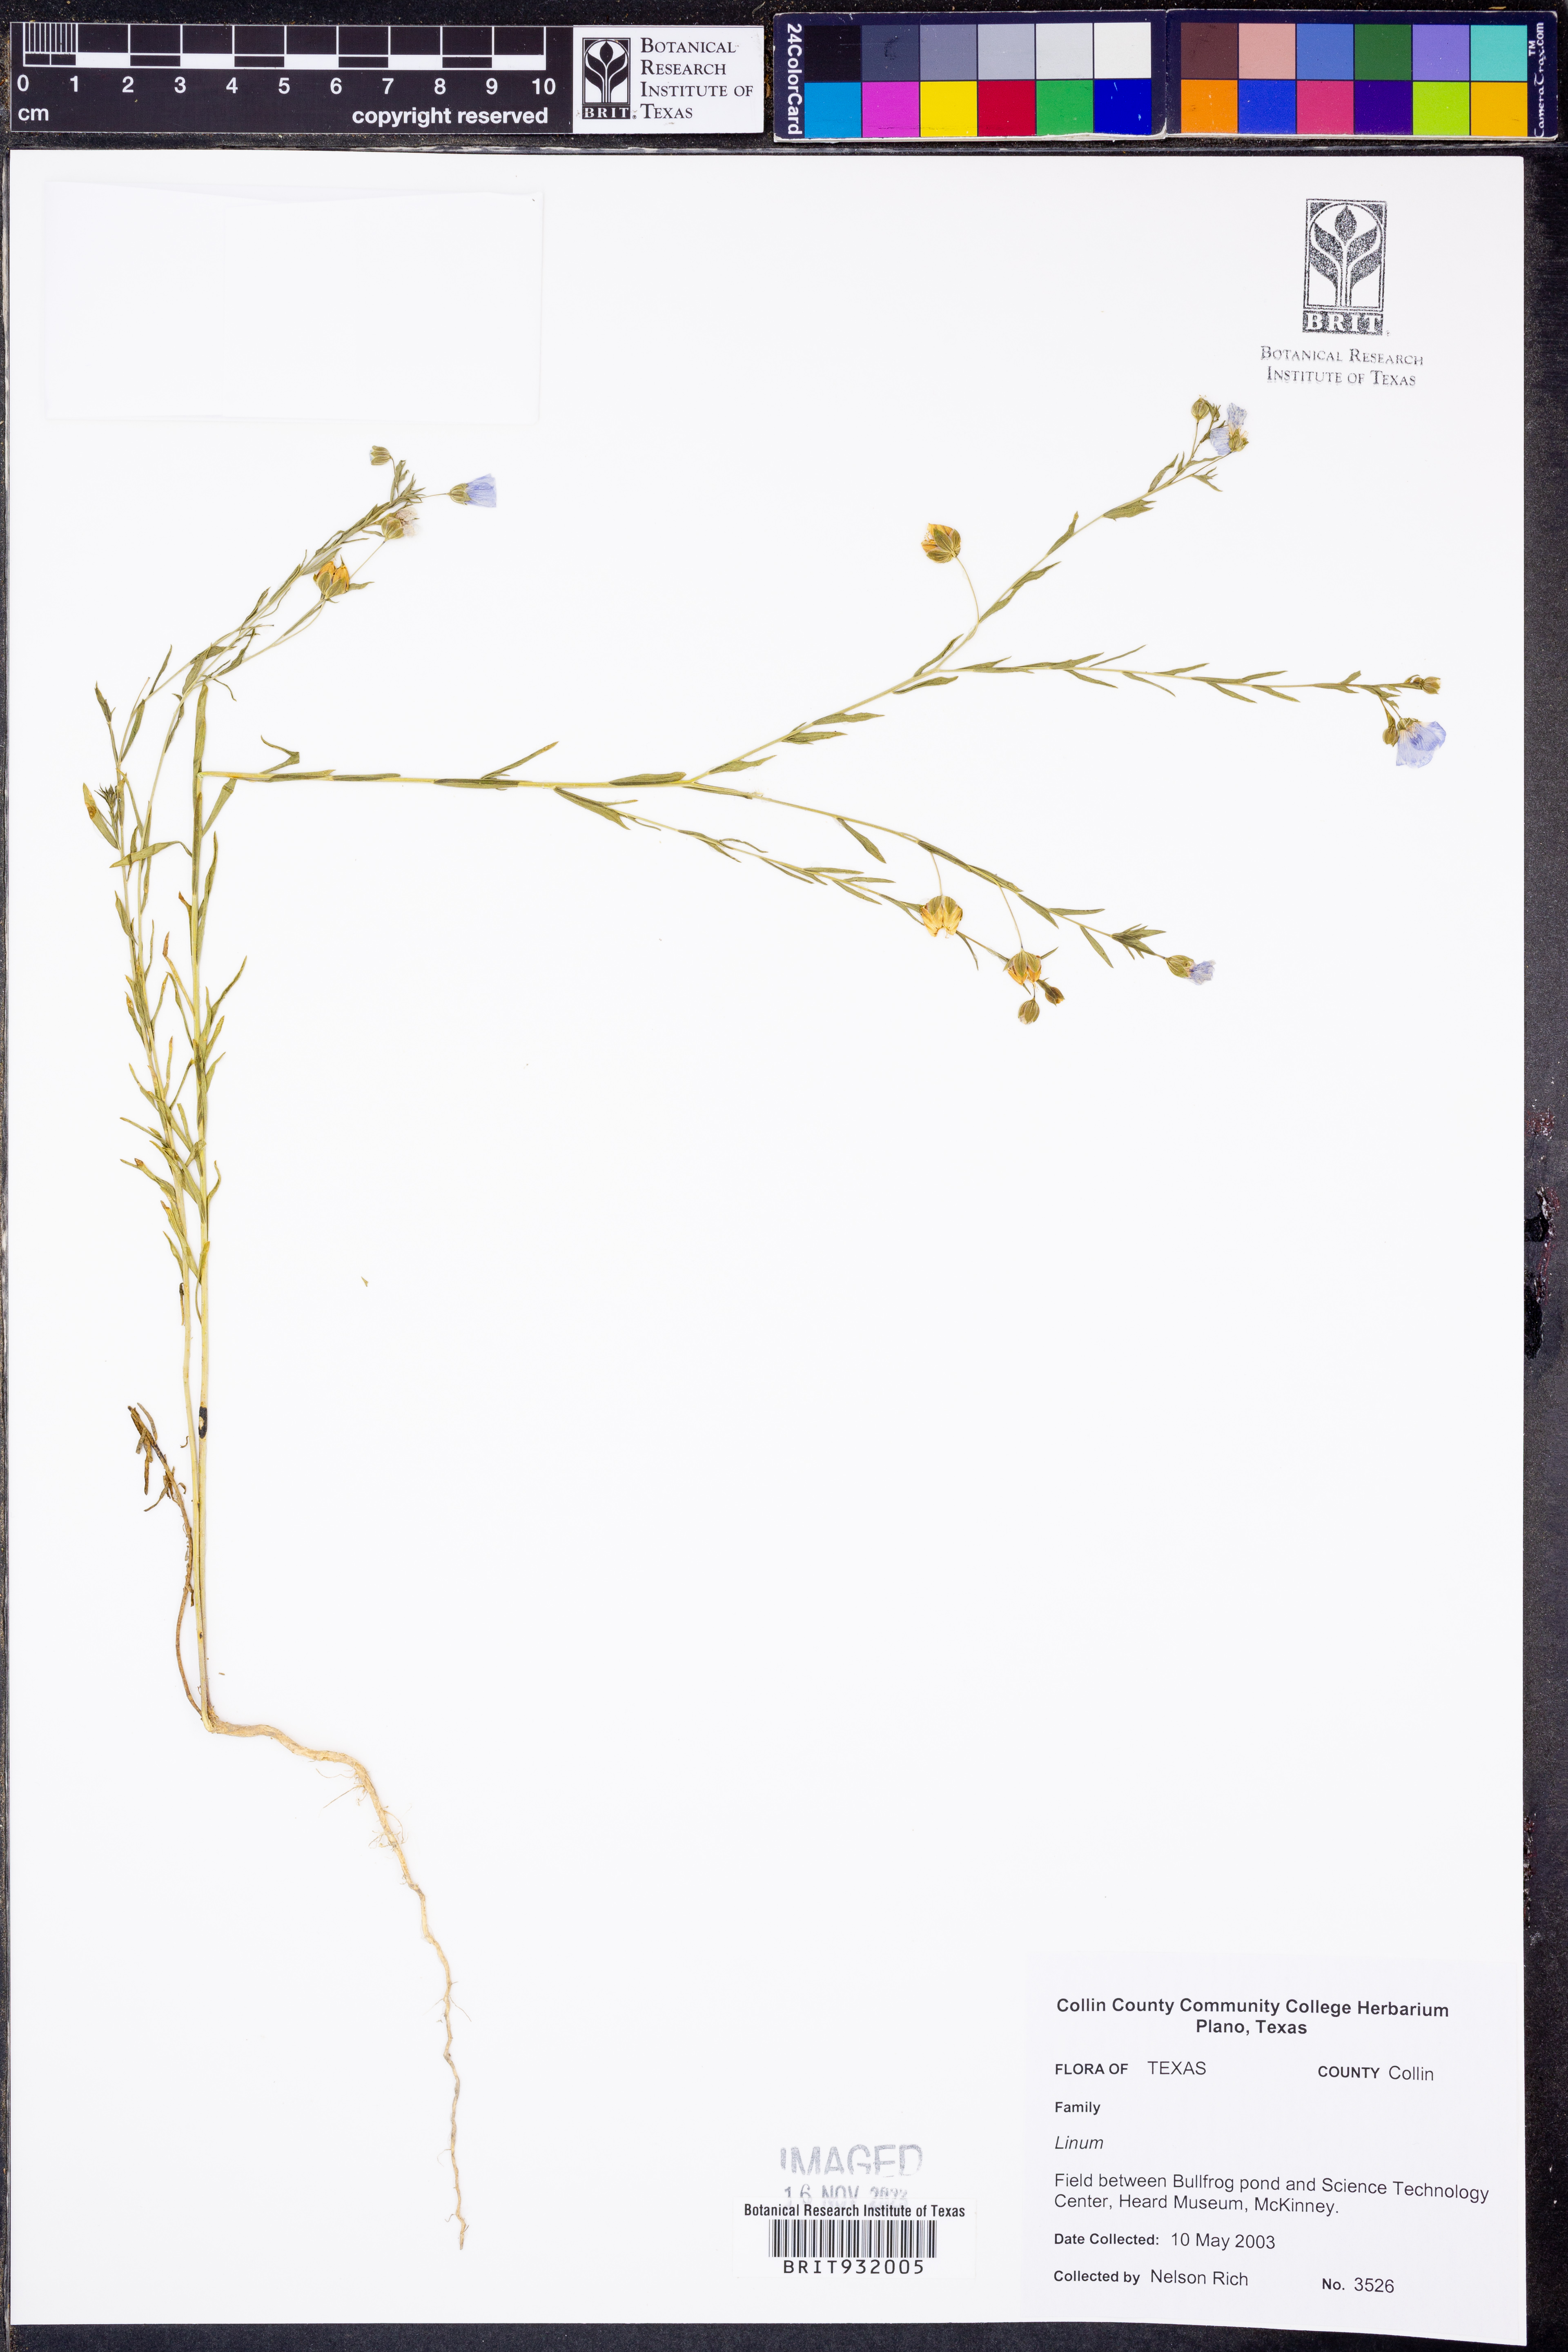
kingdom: Plantae
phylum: Tracheophyta
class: Magnoliopsida
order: Malpighiales
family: Linaceae
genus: Linum
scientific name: Linum
